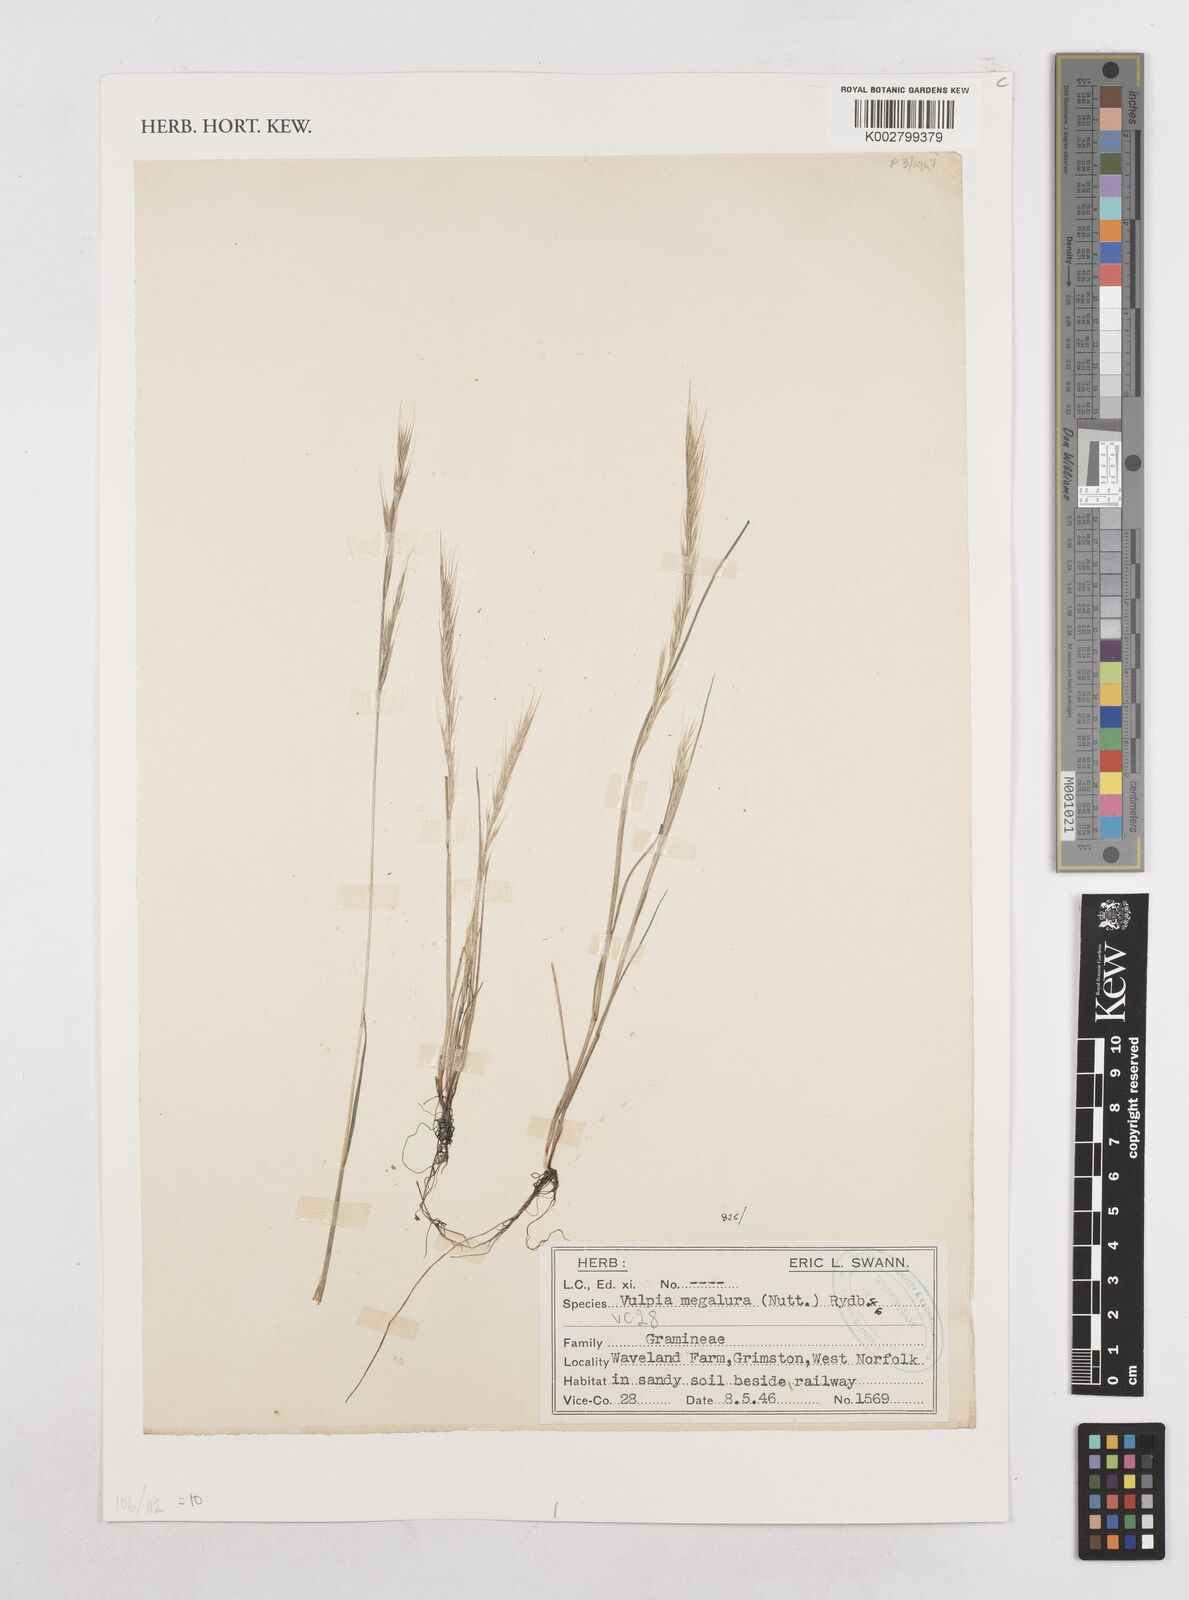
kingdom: Plantae
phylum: Tracheophyta
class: Liliopsida
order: Poales
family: Poaceae
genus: Festuca
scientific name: Festuca myuros
